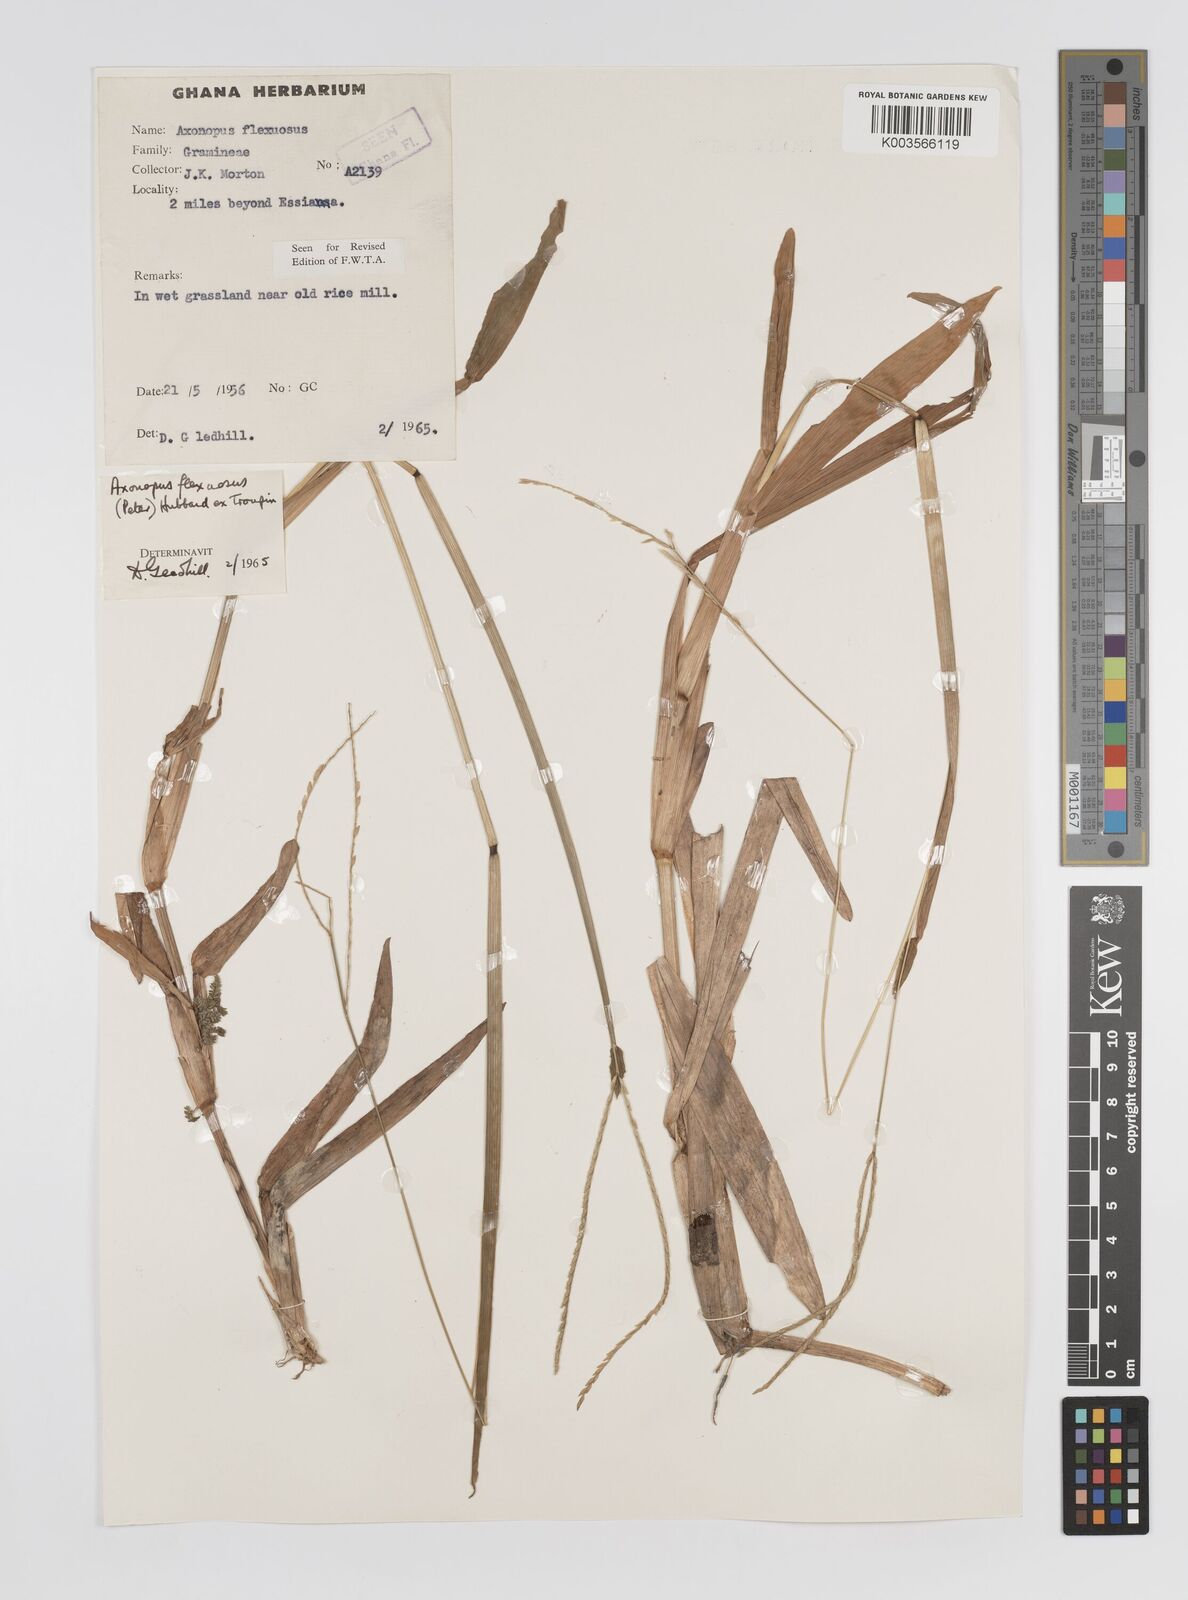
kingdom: Plantae
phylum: Tracheophyta
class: Liliopsida
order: Poales
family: Poaceae
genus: Axonopus
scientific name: Axonopus flexuosus
